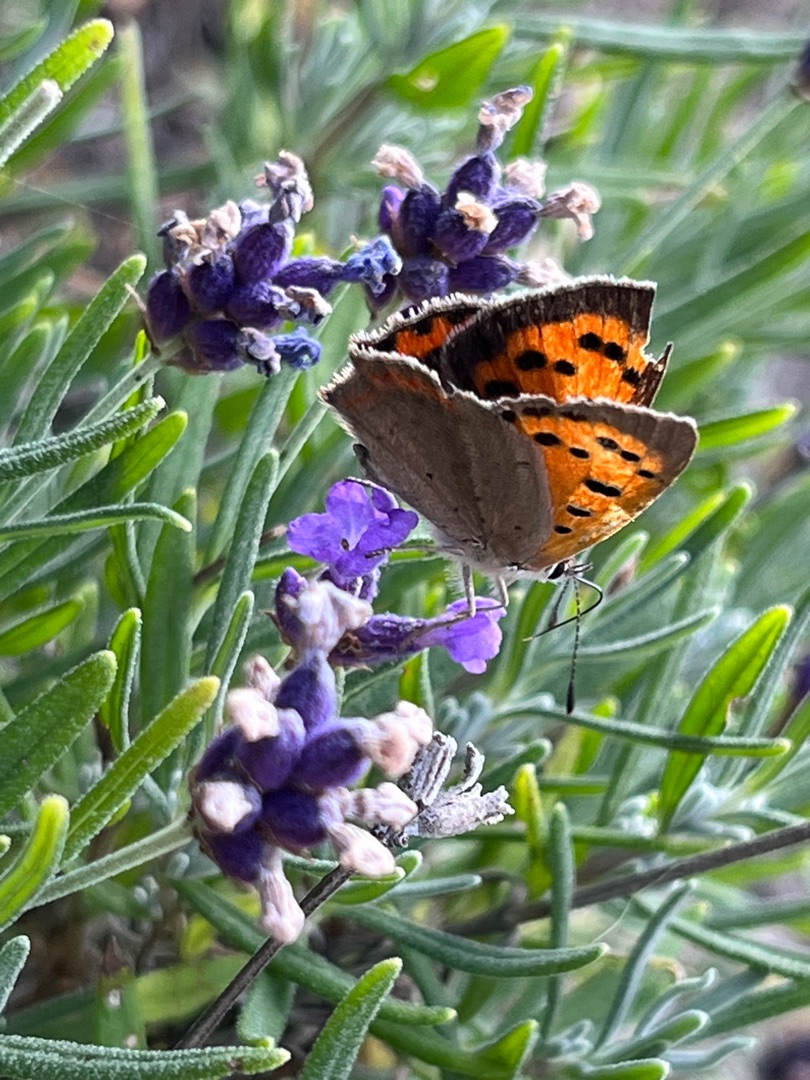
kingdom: Animalia
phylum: Arthropoda
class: Insecta
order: Lepidoptera
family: Lycaenidae
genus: Lycaena
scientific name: Lycaena phlaeas
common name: Lille ildfugl
